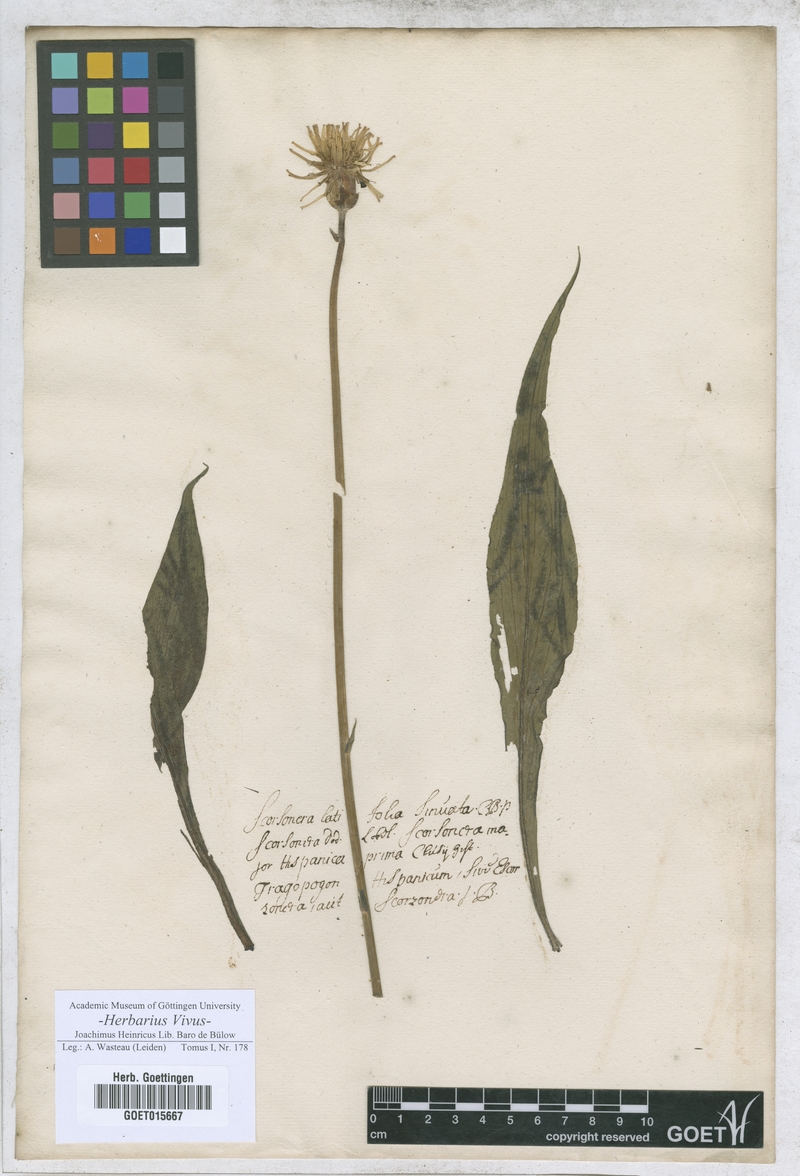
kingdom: Plantae
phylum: Tracheophyta
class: Magnoliopsida
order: Asterales
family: Asteraceae
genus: Pseudopodospermum
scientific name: Pseudopodospermum hispanicum
